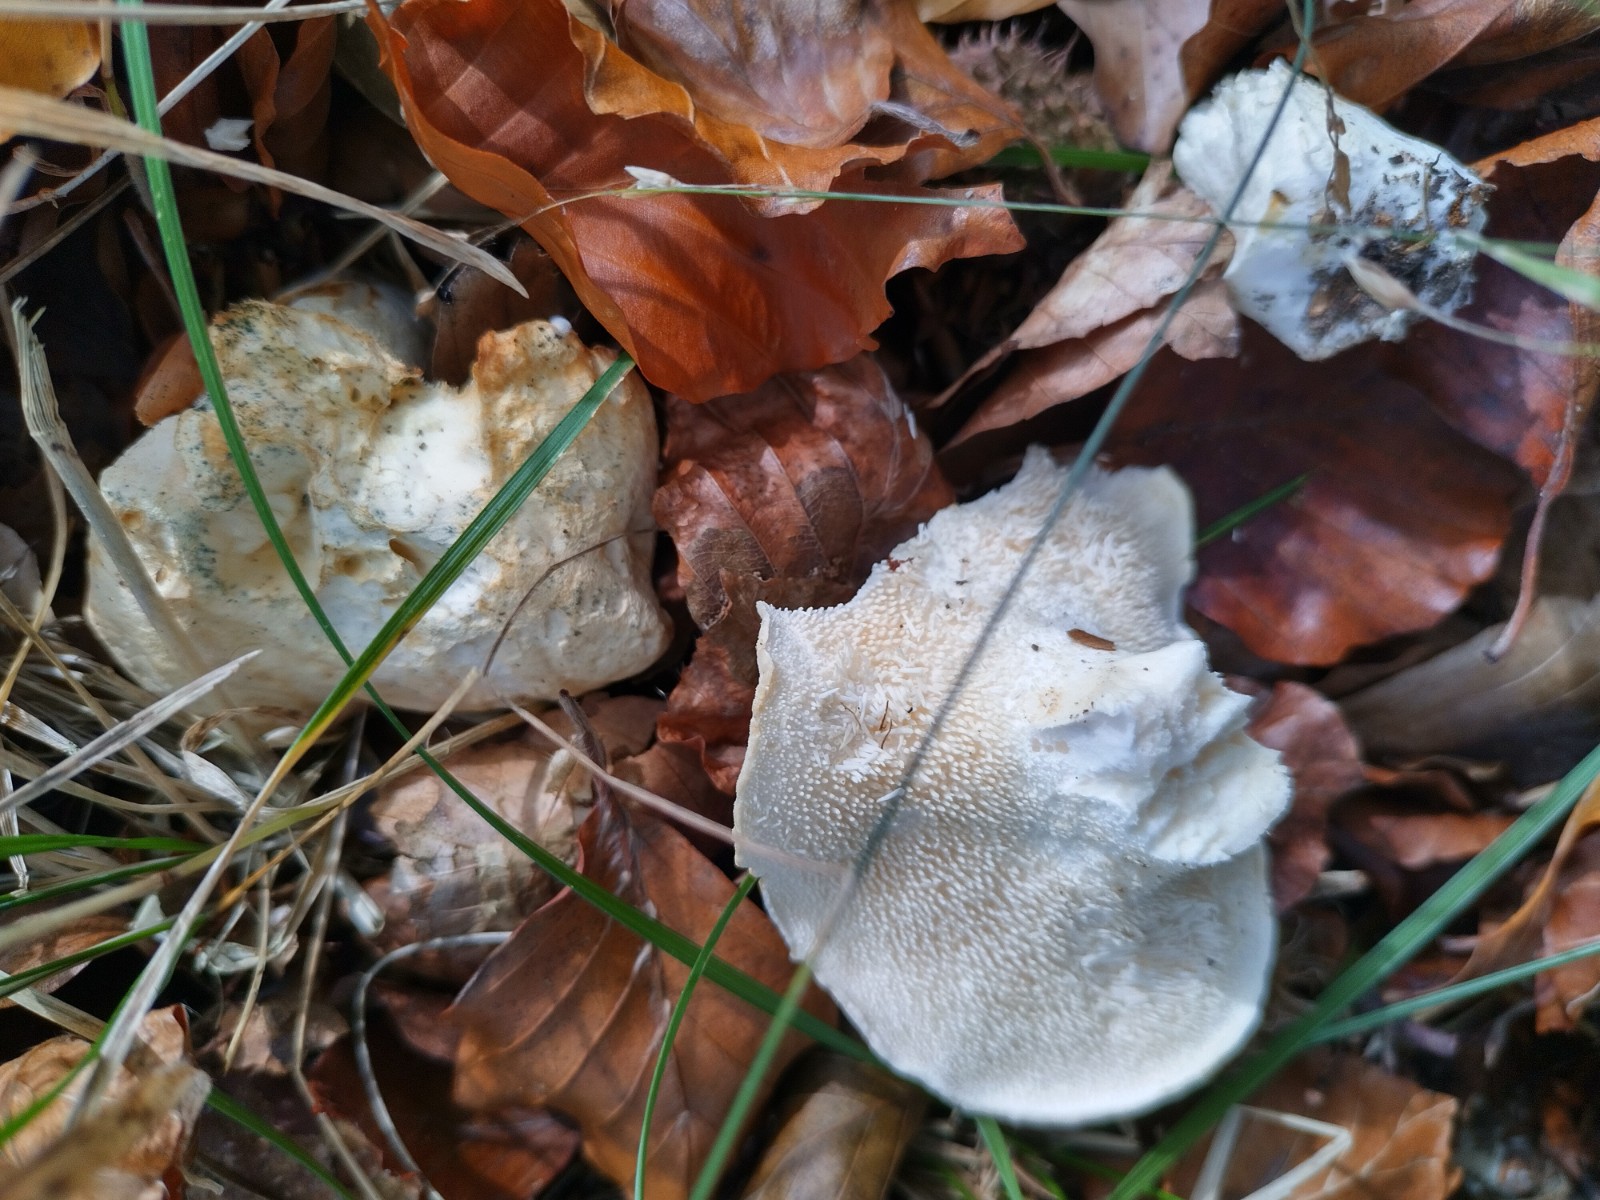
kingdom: Fungi
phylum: Basidiomycota
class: Agaricomycetes
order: Cantharellales
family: Hydnaceae
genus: Hydnum
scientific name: Hydnum repandum
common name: almindelig pigsvamp
